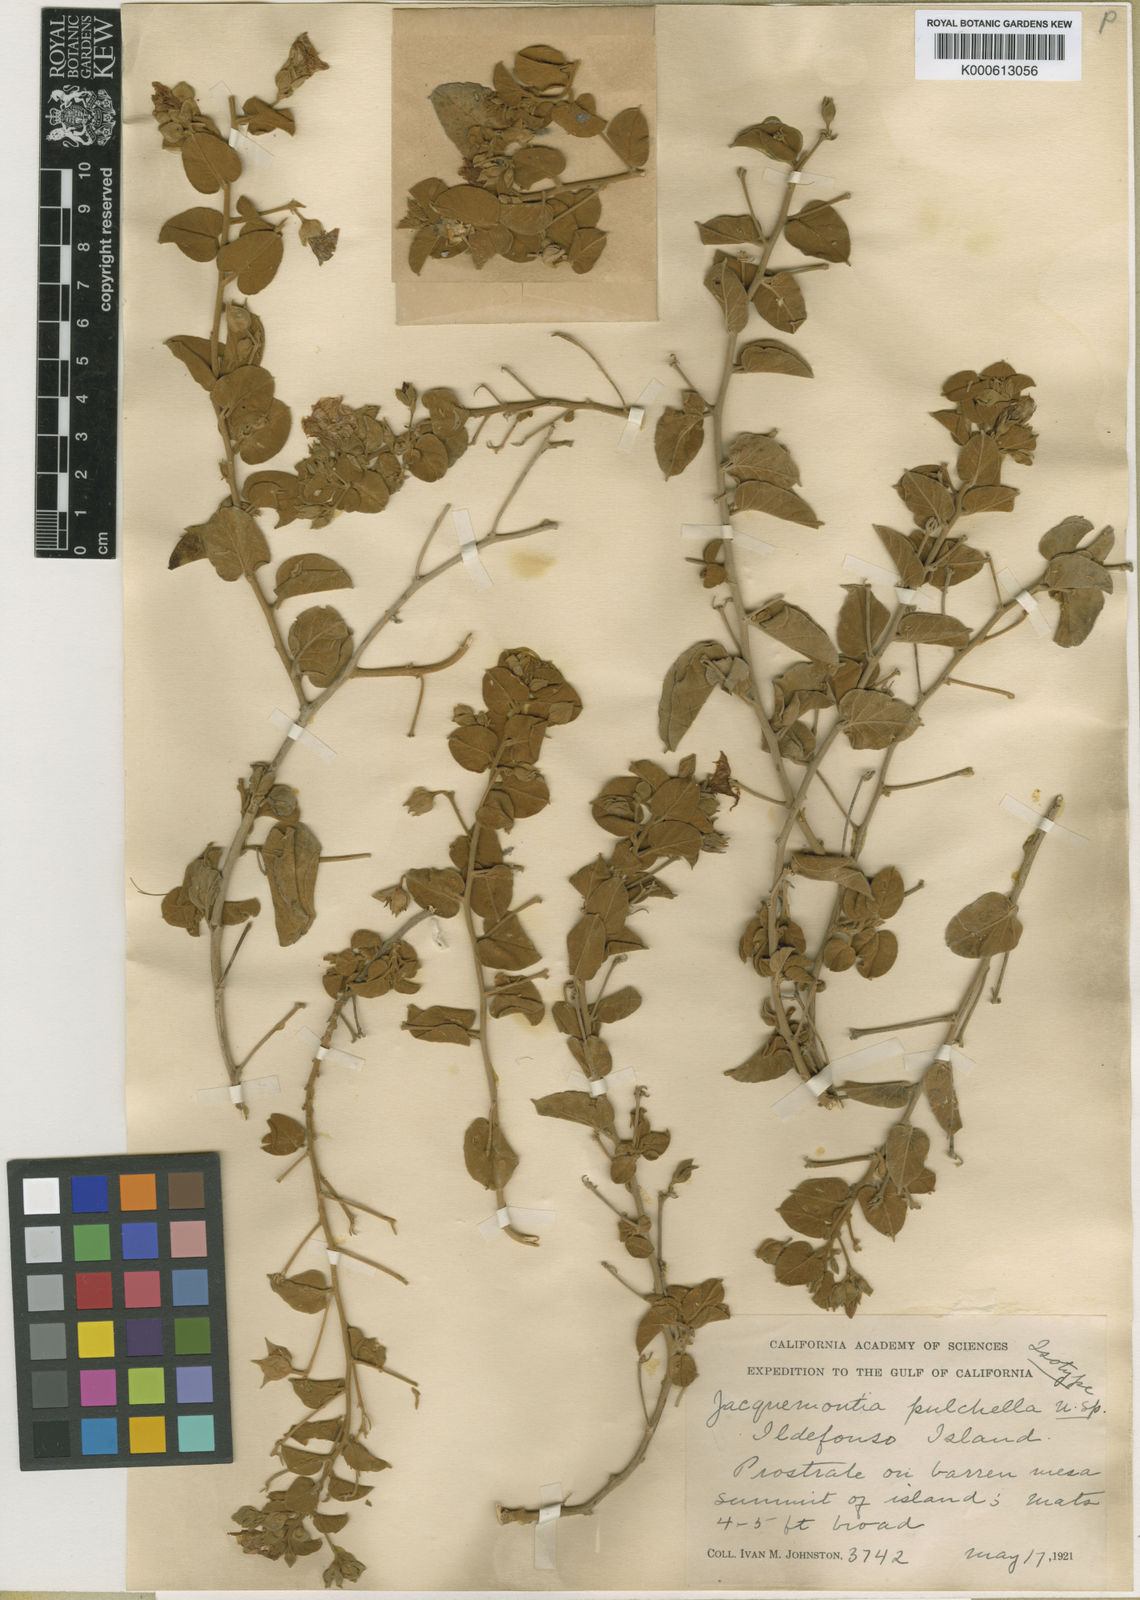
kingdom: Plantae
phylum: Tracheophyta
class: Magnoliopsida
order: Solanales
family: Convolvulaceae
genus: Jacquemontia
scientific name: Jacquemontia
